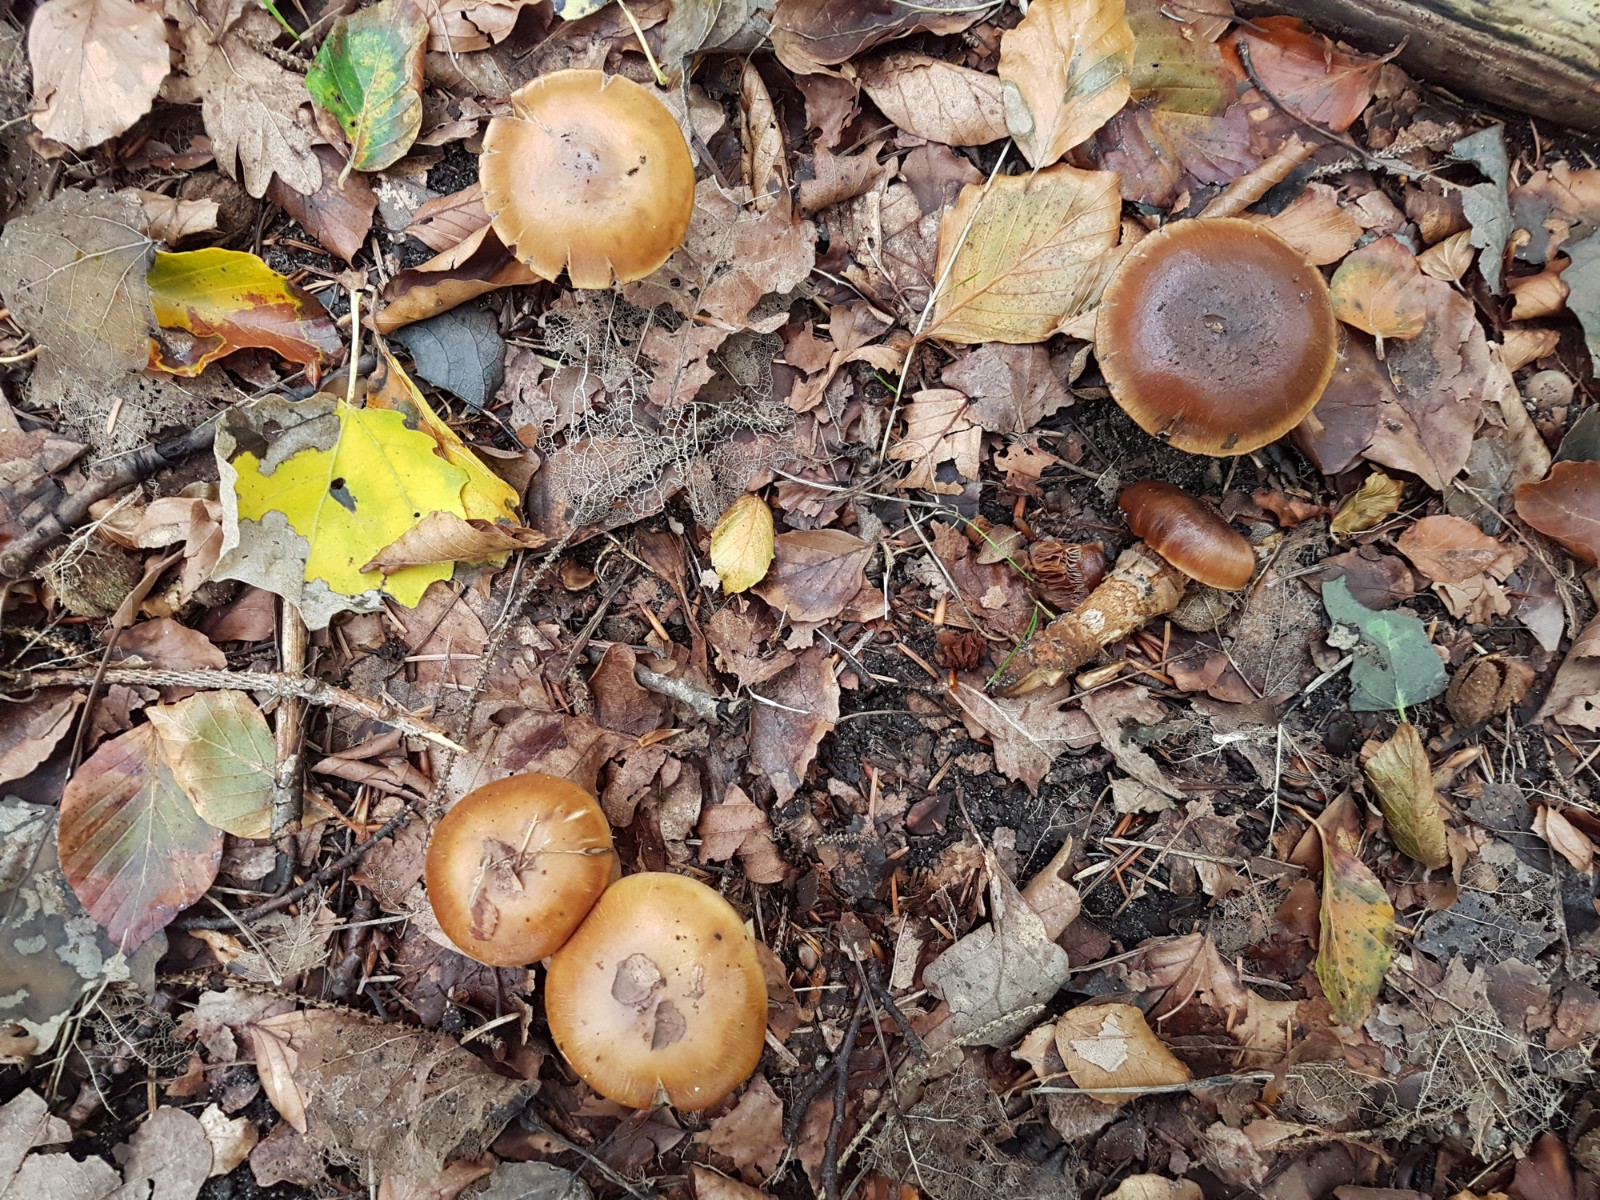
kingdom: Fungi
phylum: Basidiomycota
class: Agaricomycetes
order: Agaricales
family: Cortinariaceae
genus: Cortinarius
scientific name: Cortinarius trivialis
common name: brunslimet slørhat
